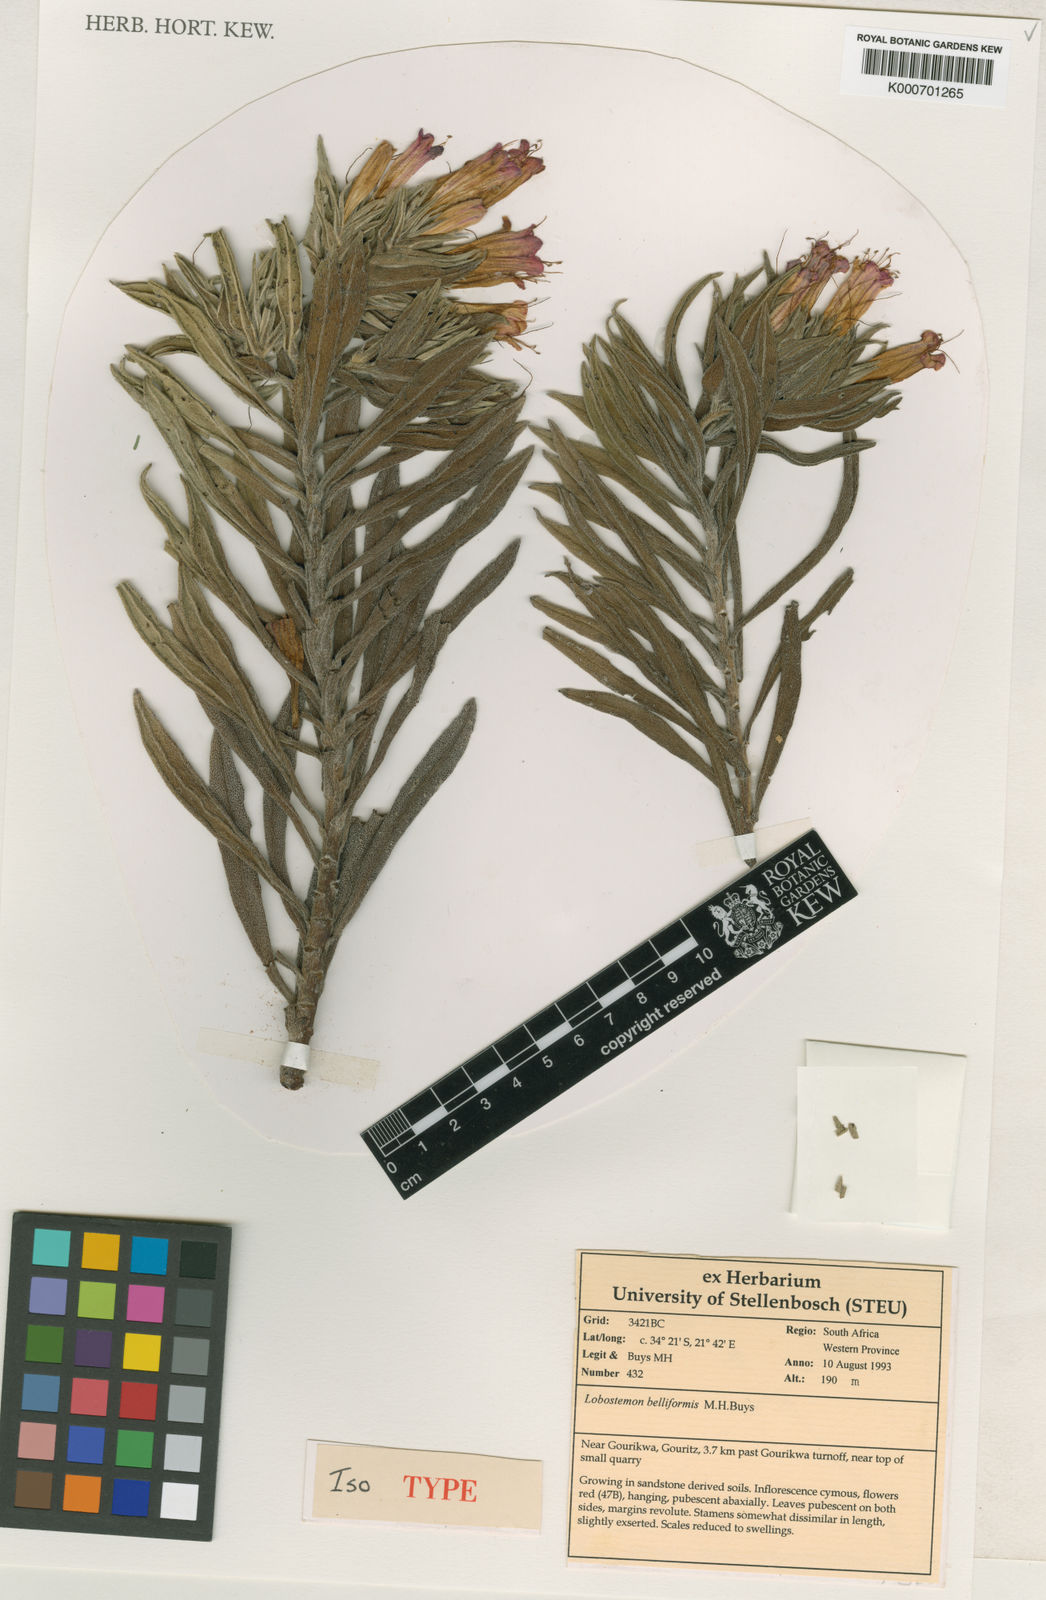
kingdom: Plantae
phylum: Tracheophyta
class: Magnoliopsida
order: Boraginales
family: Boraginaceae
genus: Lobostemon
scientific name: Lobostemon belliformis
